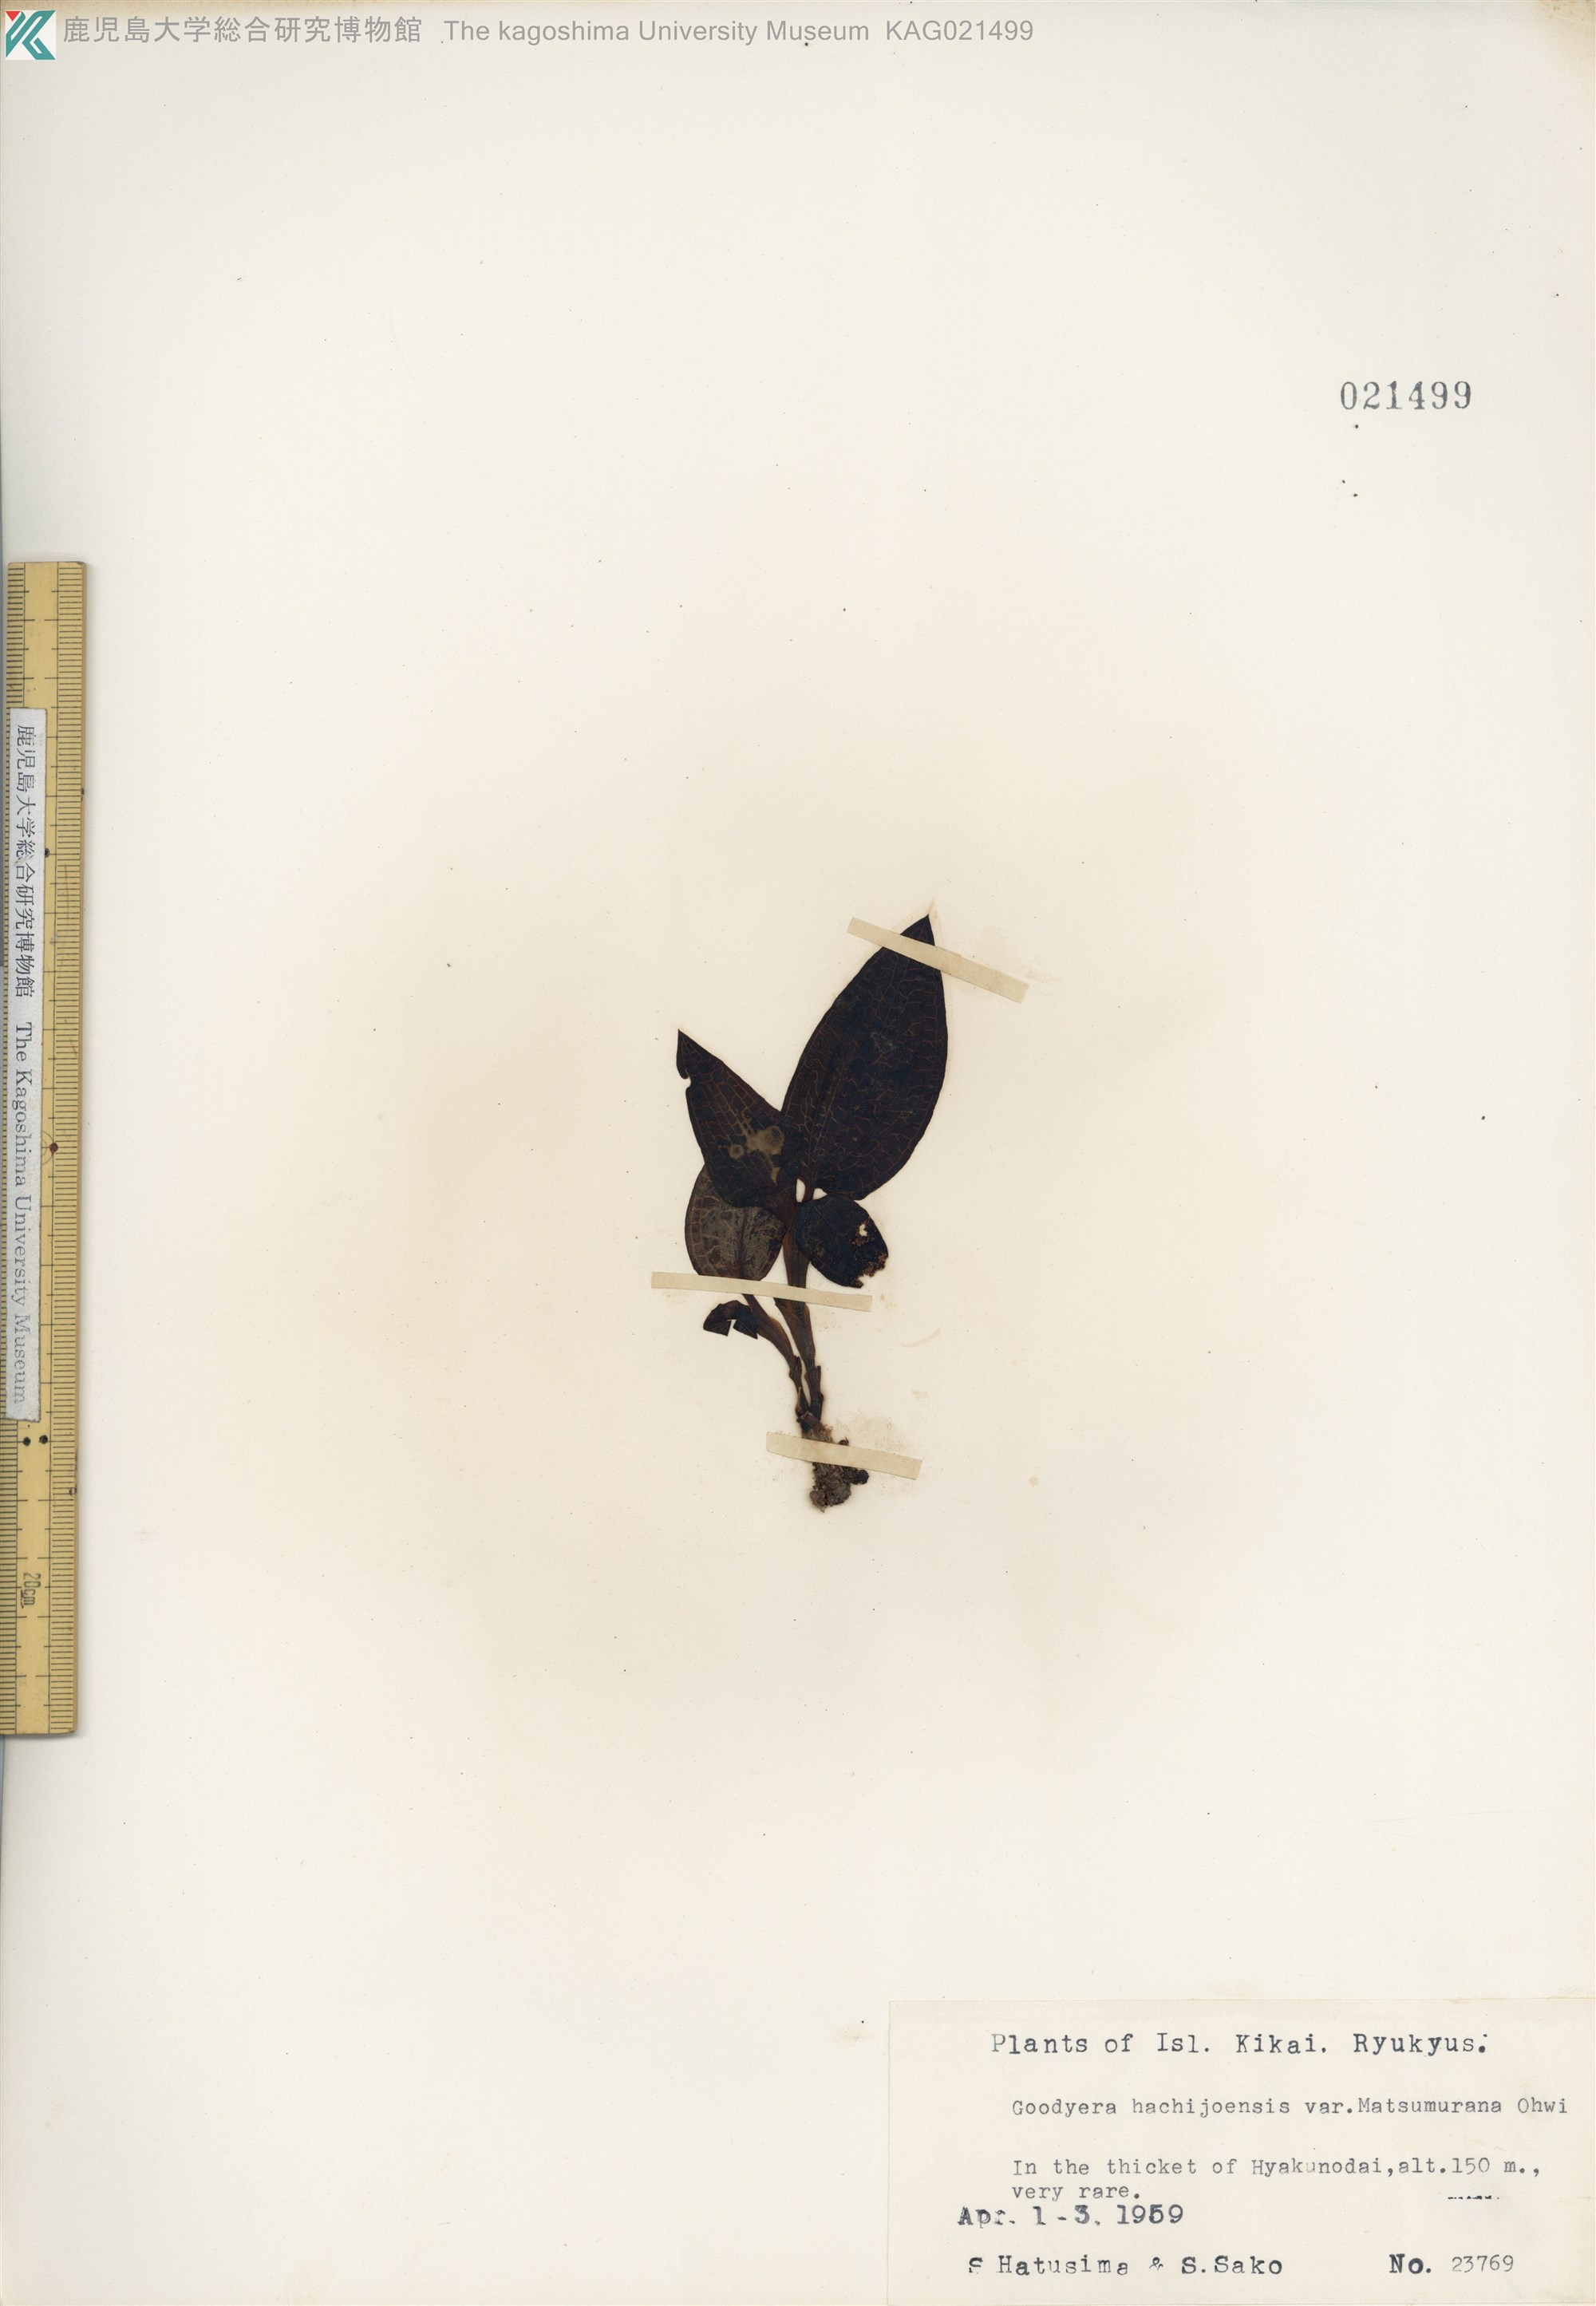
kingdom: Plantae
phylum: Tracheophyta
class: Liliopsida
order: Asparagales
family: Orchidaceae
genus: Goodyera
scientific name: Goodyera hachijoensis
